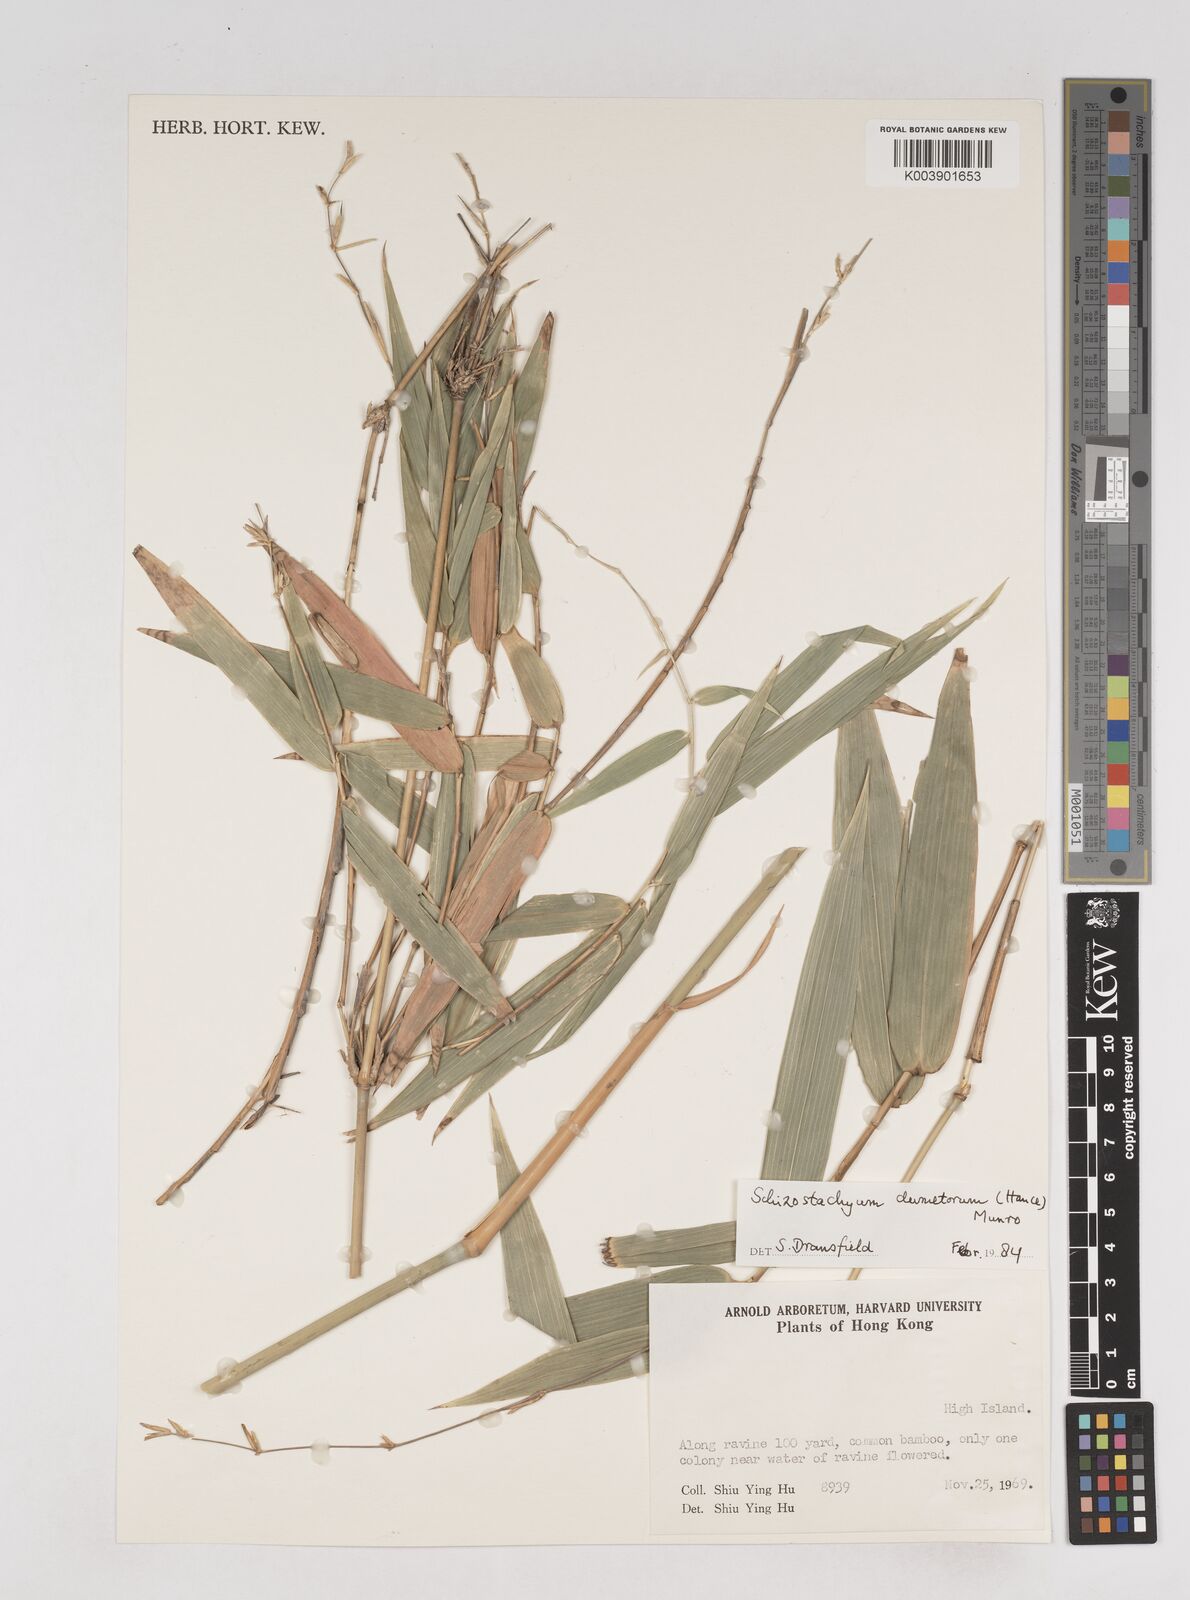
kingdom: Plantae
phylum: Tracheophyta
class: Liliopsida
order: Poales
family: Poaceae
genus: Schizostachyum
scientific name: Schizostachyum dumetorum
